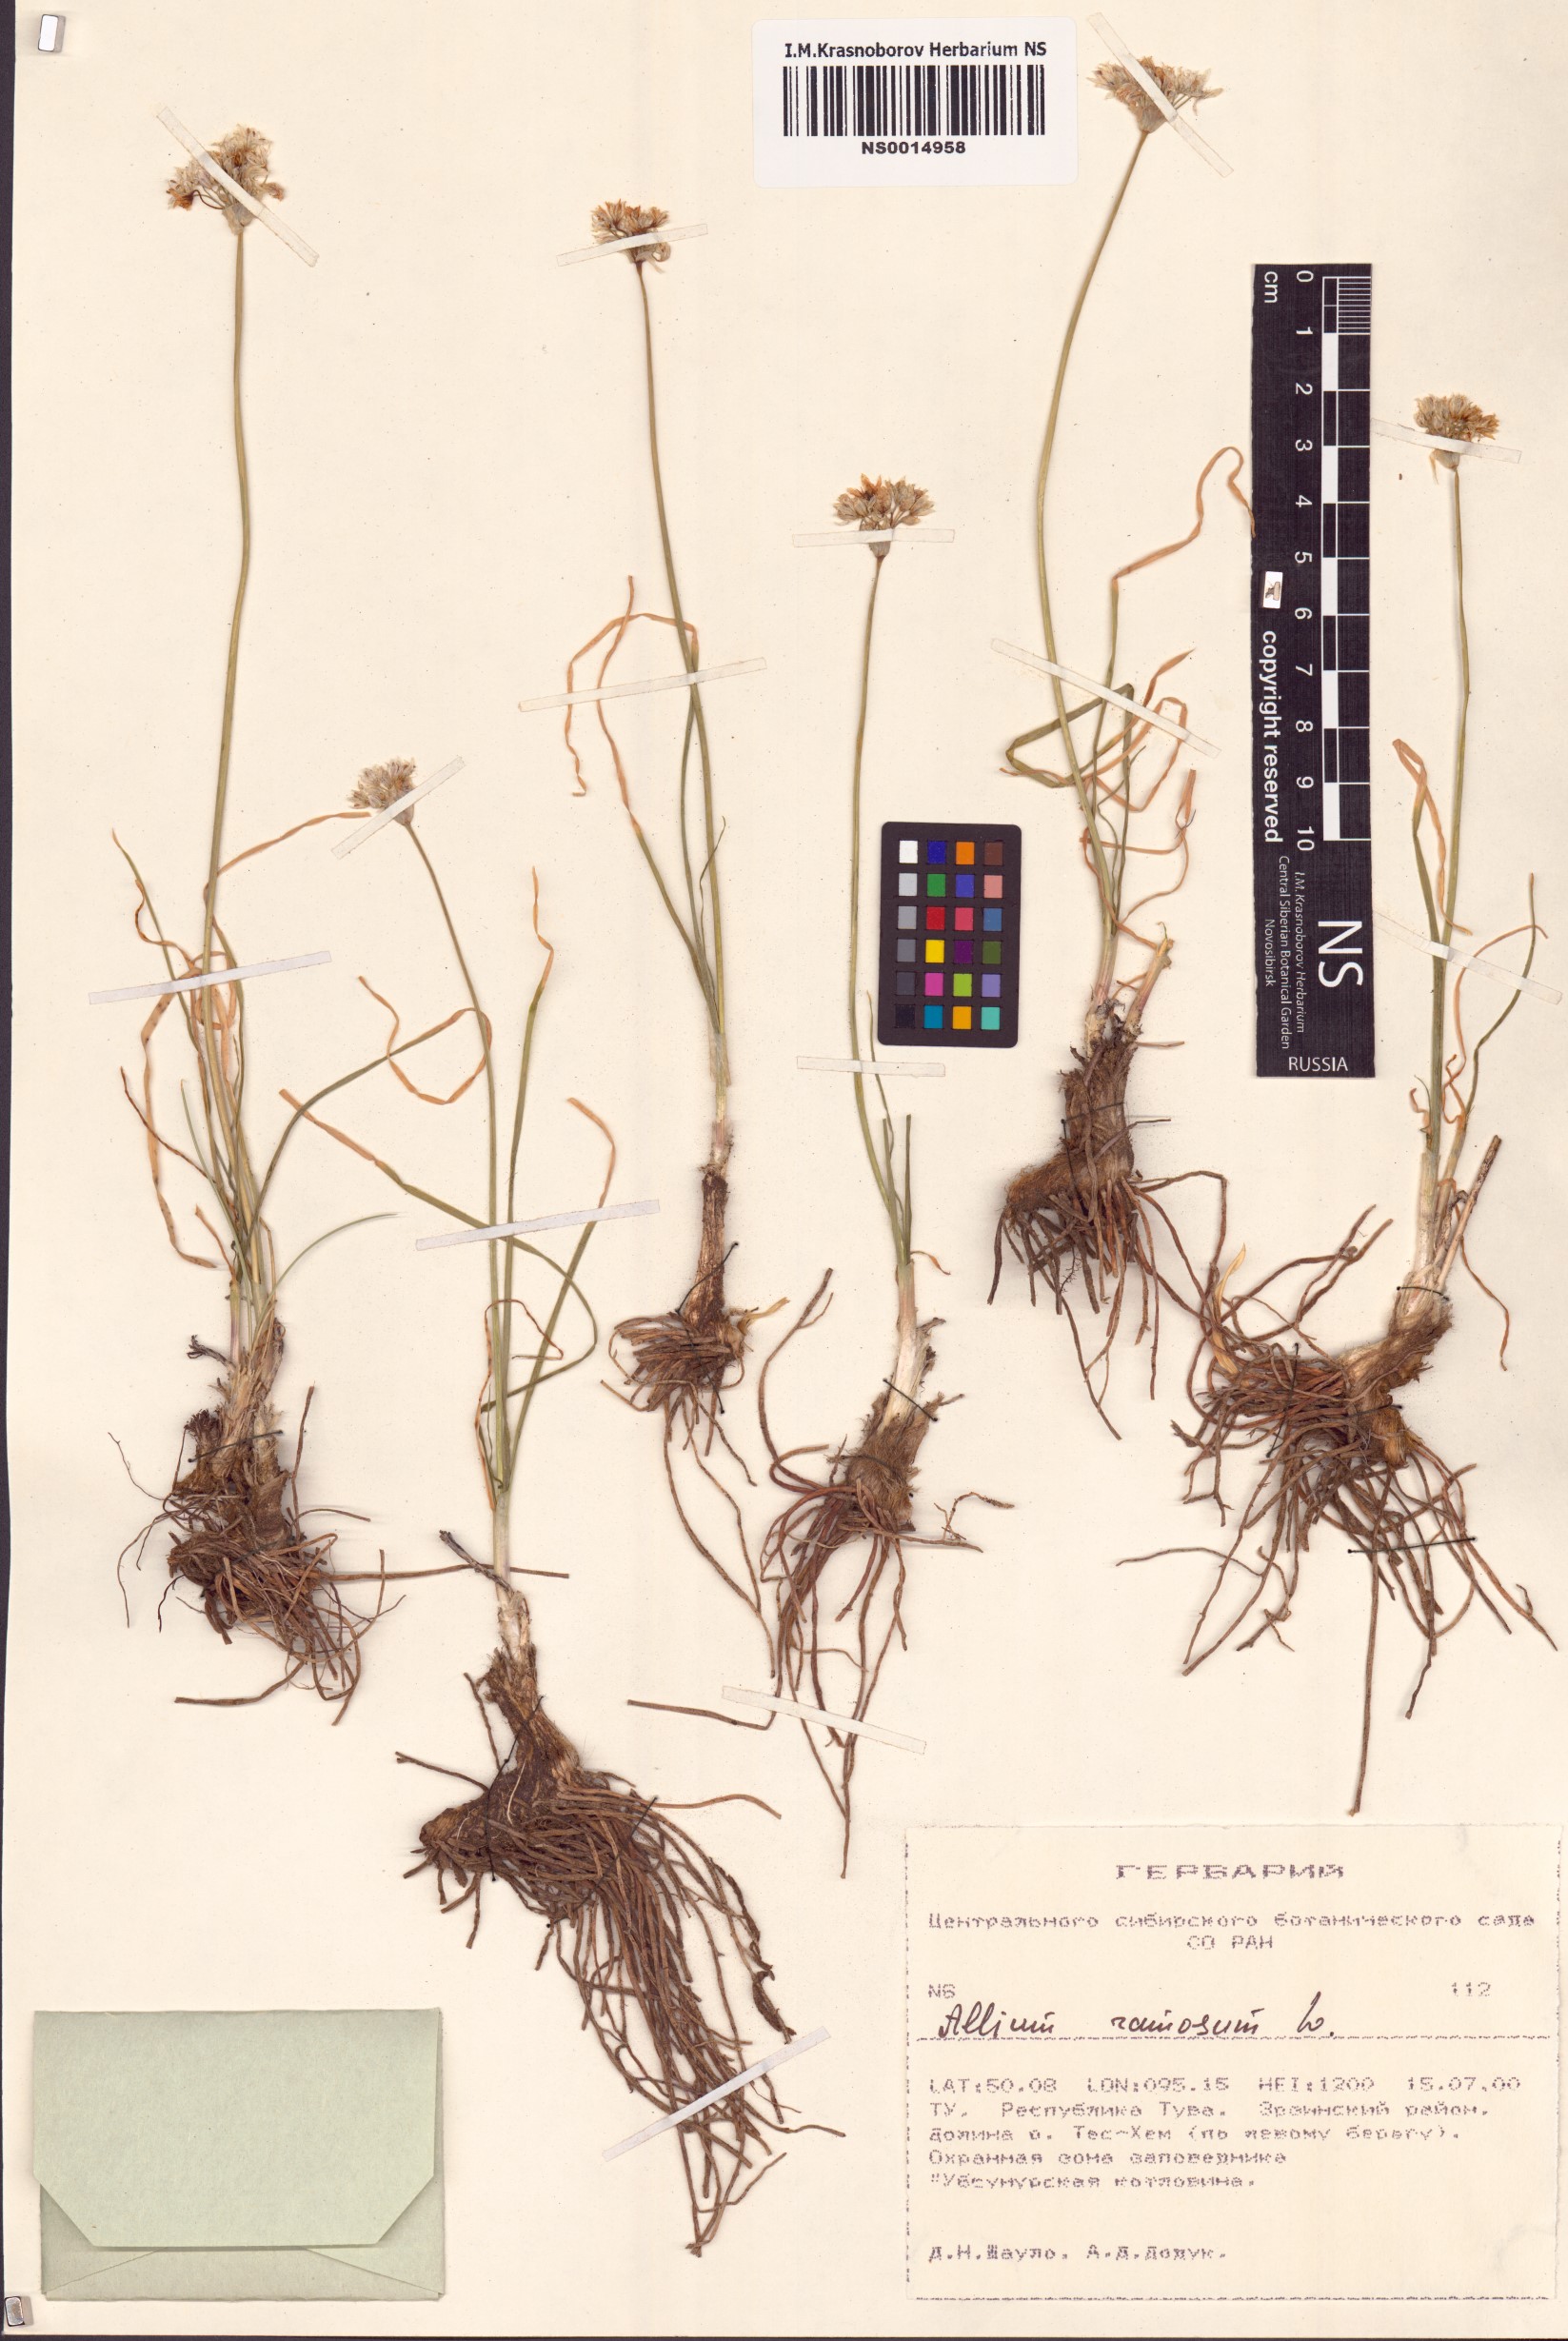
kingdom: Plantae
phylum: Tracheophyta
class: Liliopsida
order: Asparagales
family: Amaryllidaceae
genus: Allium
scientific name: Allium ramosum
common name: Fragrant garlic
